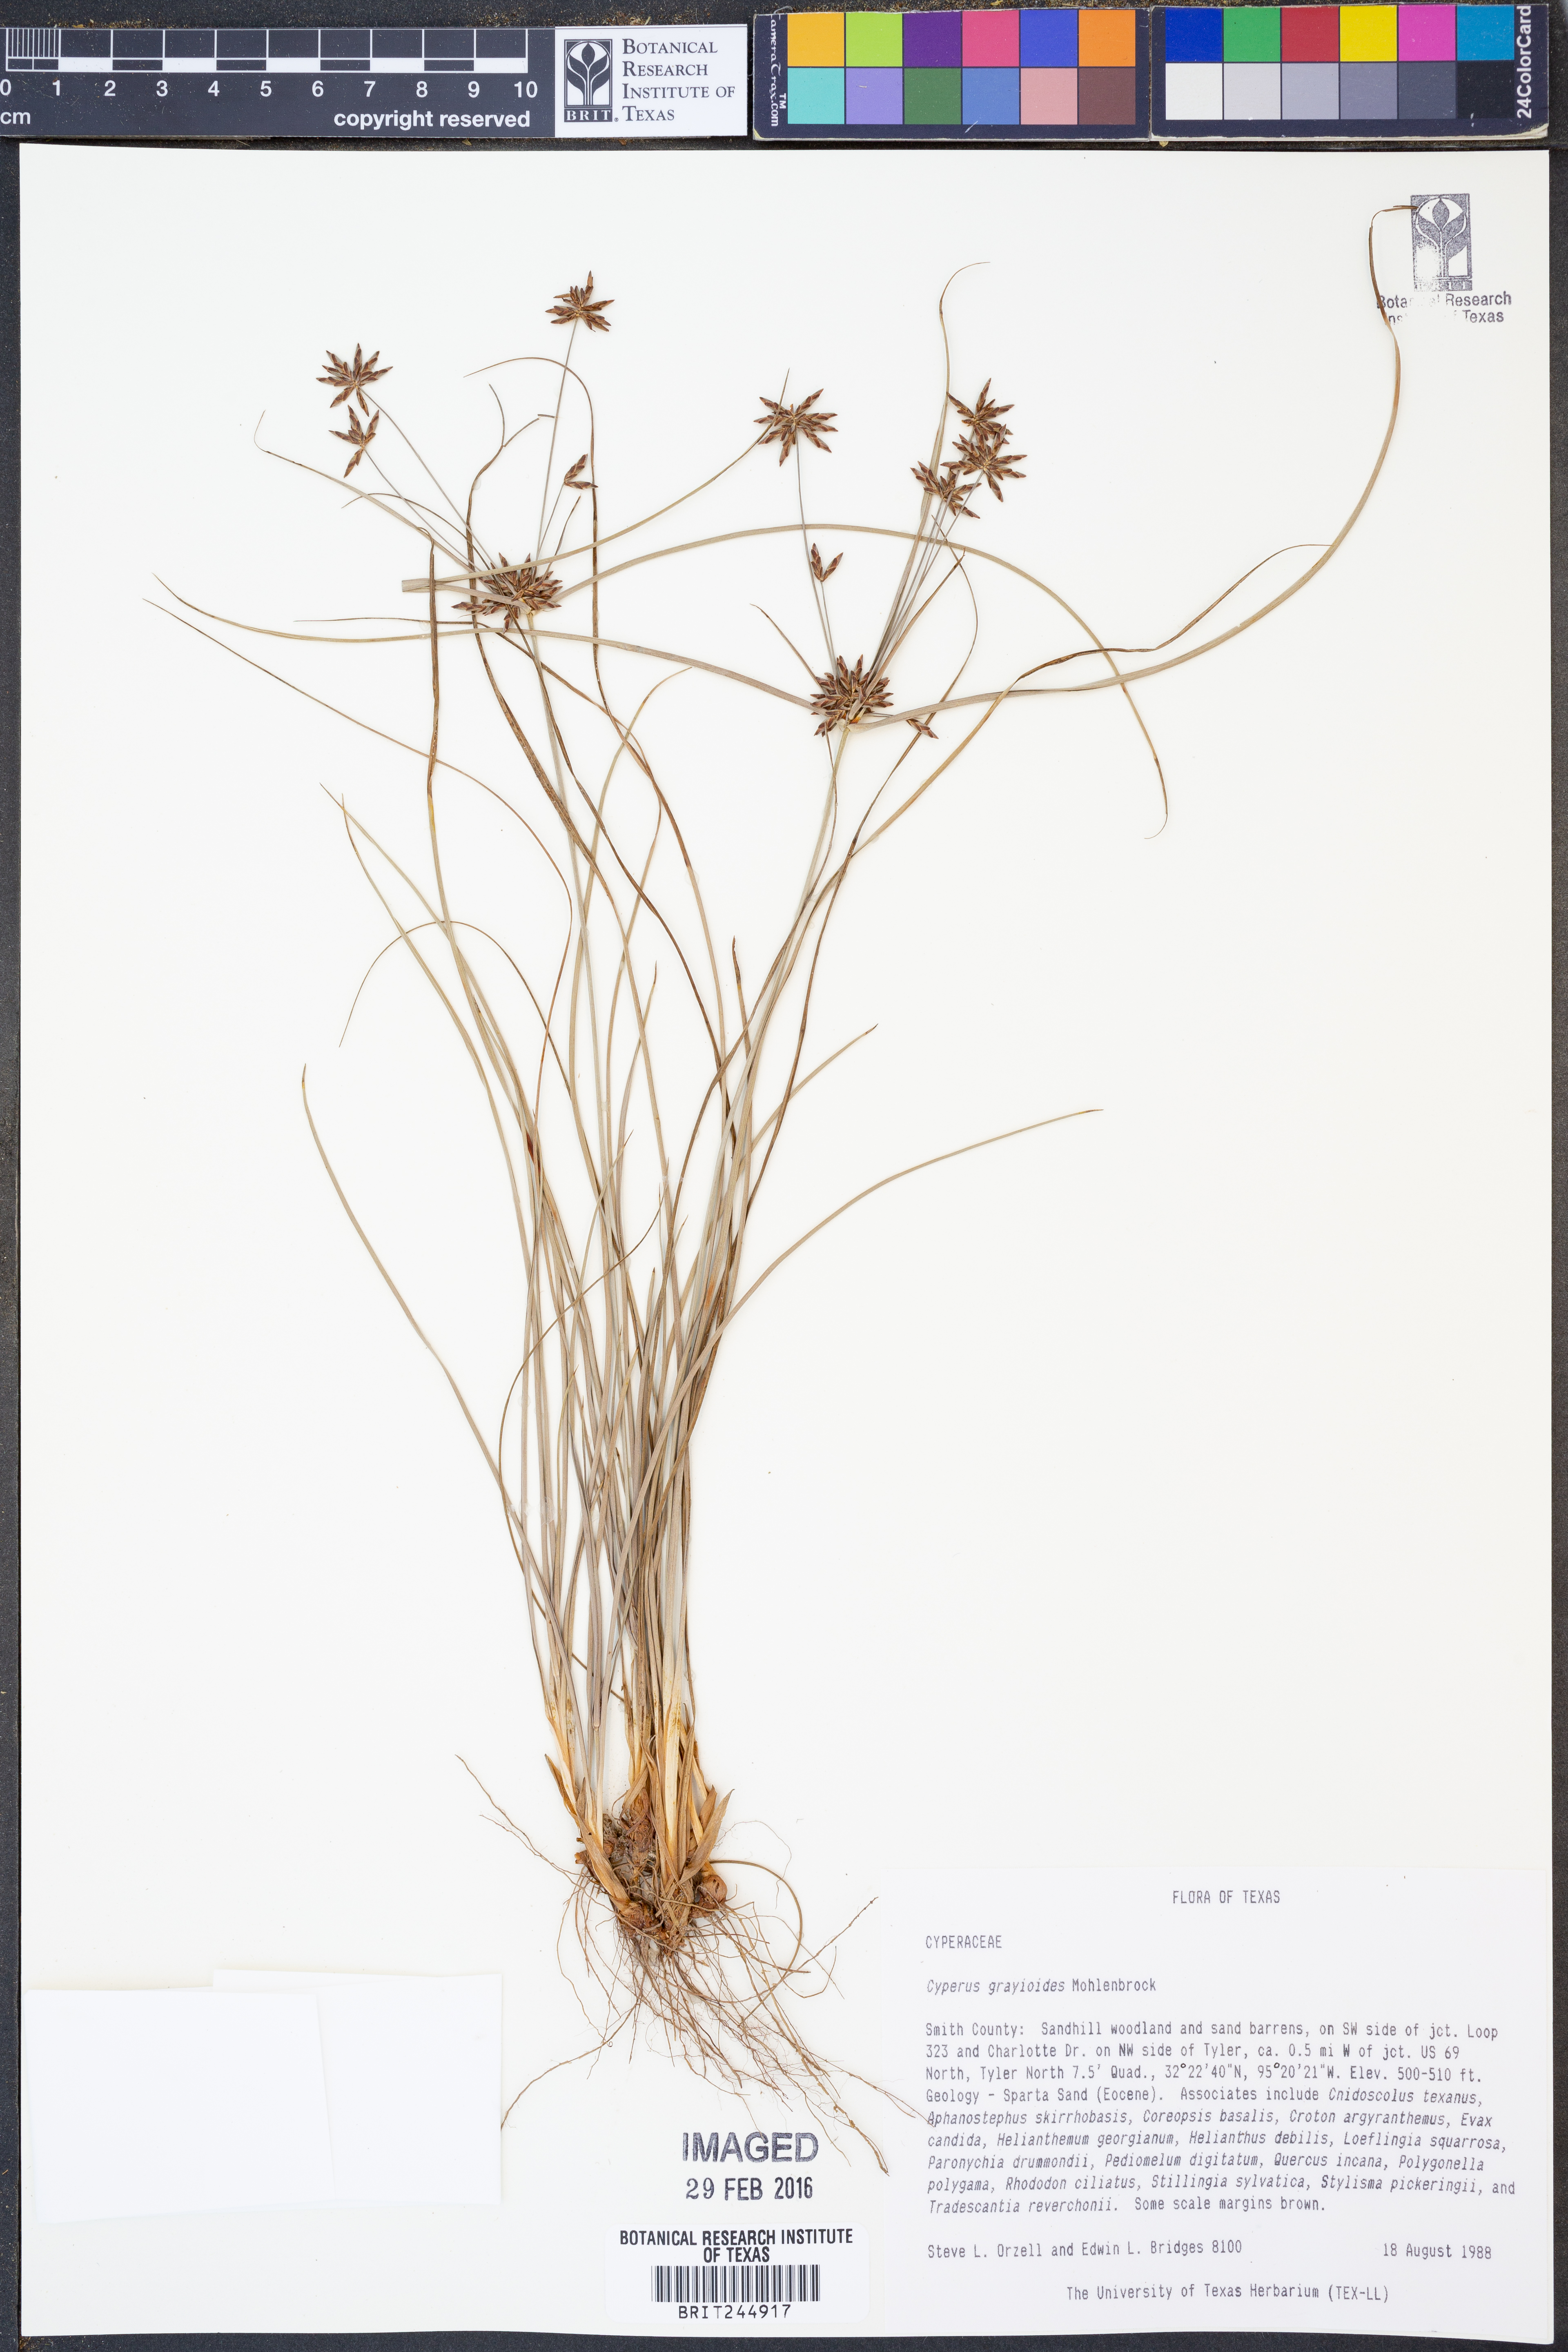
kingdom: Plantae
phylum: Tracheophyta
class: Liliopsida
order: Poales
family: Cyperaceae
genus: Cyperus
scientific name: Cyperus grayioides
